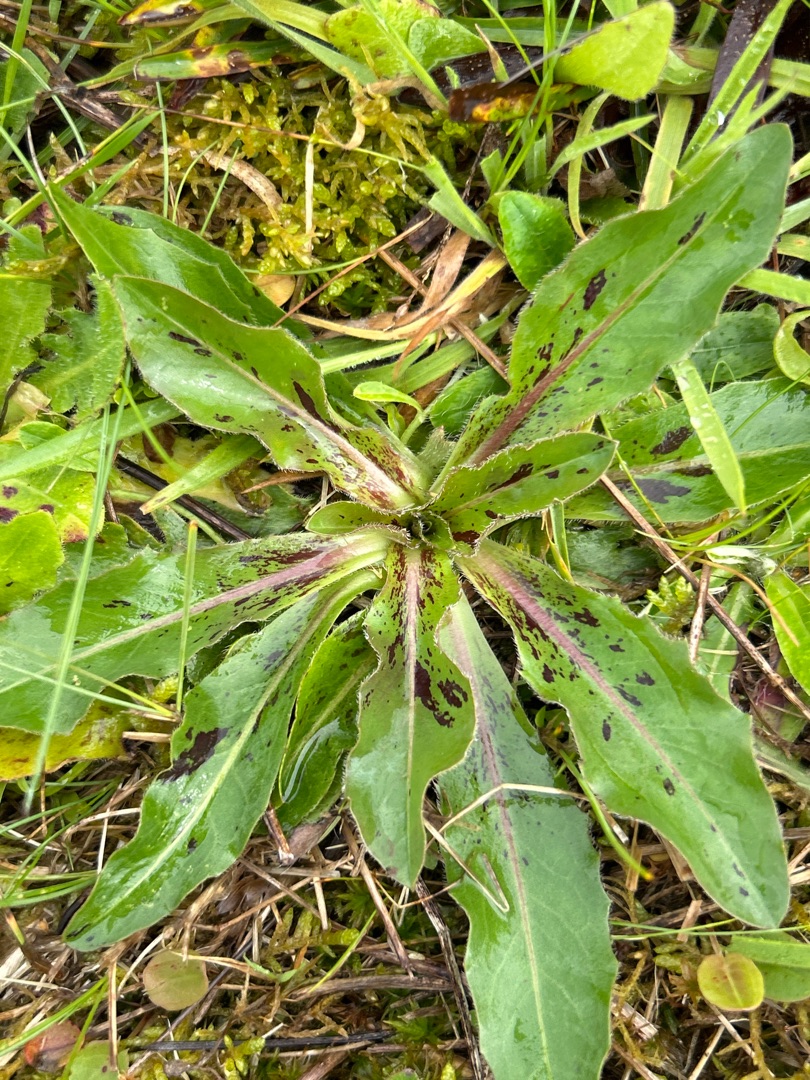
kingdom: Plantae
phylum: Tracheophyta
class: Magnoliopsida
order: Asterales
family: Asteraceae
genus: Trommsdorffia
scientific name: Trommsdorffia maculata
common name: Plettet kongepen
